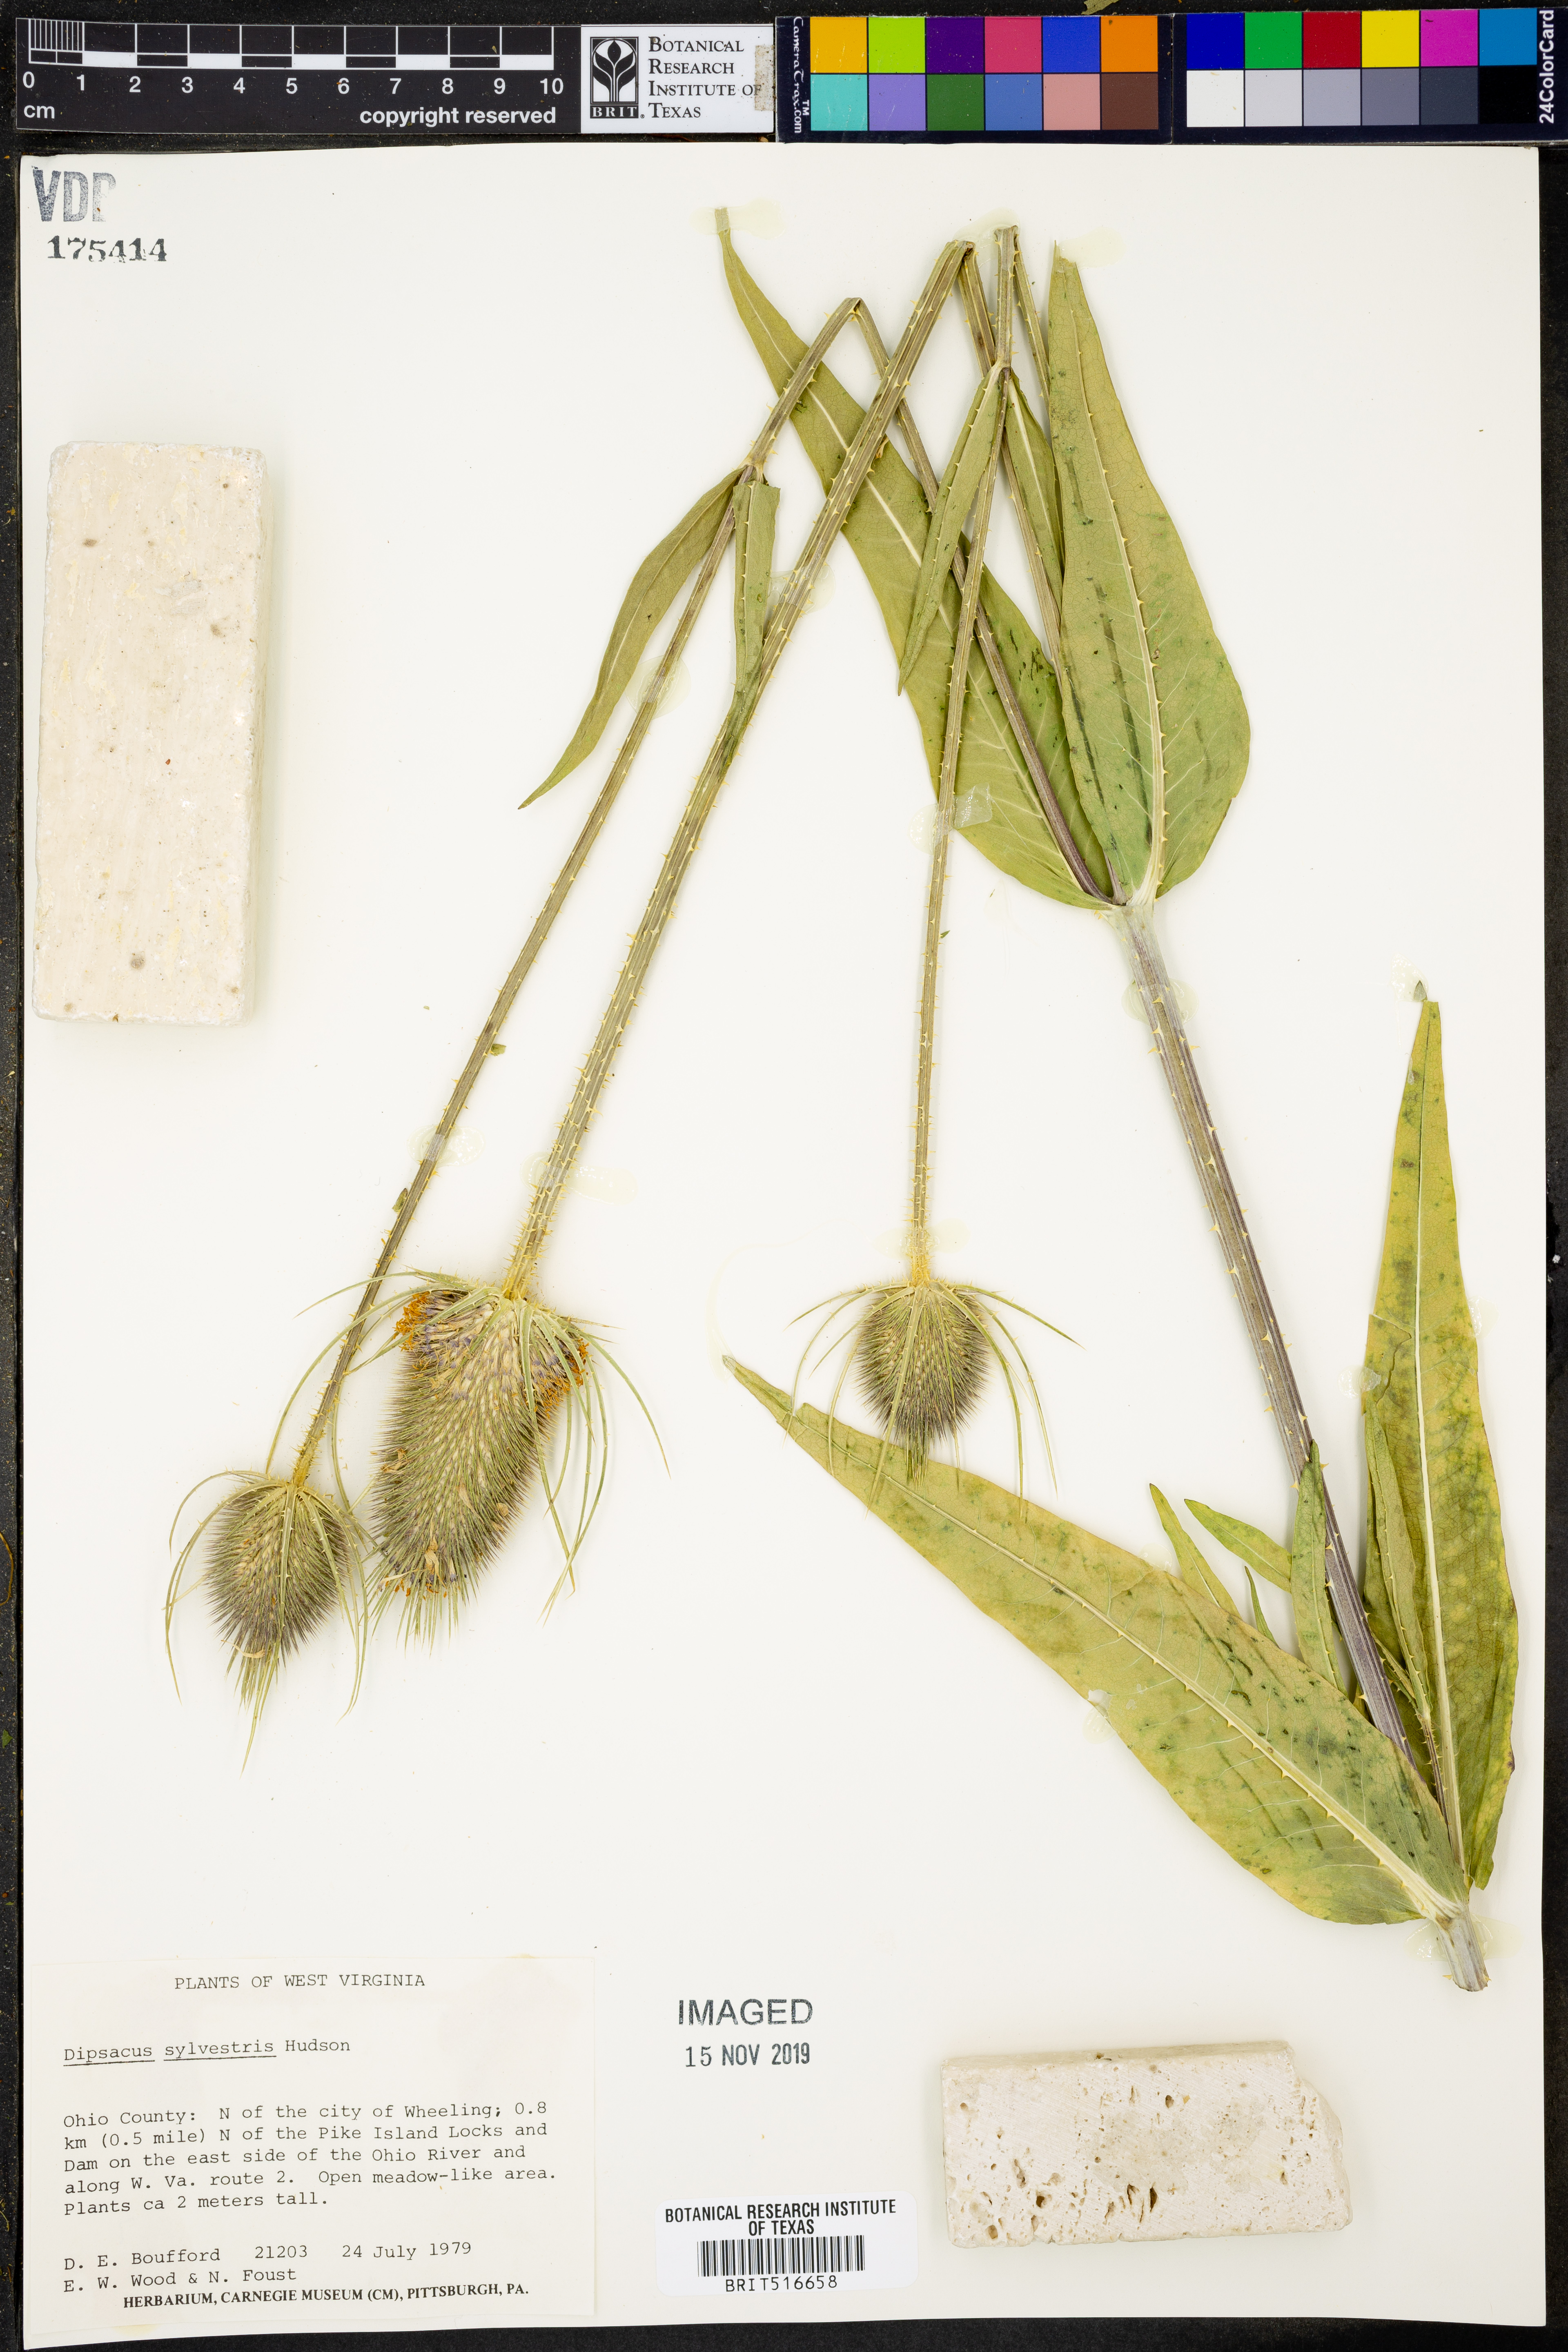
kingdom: Plantae
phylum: Tracheophyta
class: Magnoliopsida
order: Dipsacales
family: Caprifoliaceae
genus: Dipsacus
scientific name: Dipsacus fullonum
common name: Teasel
